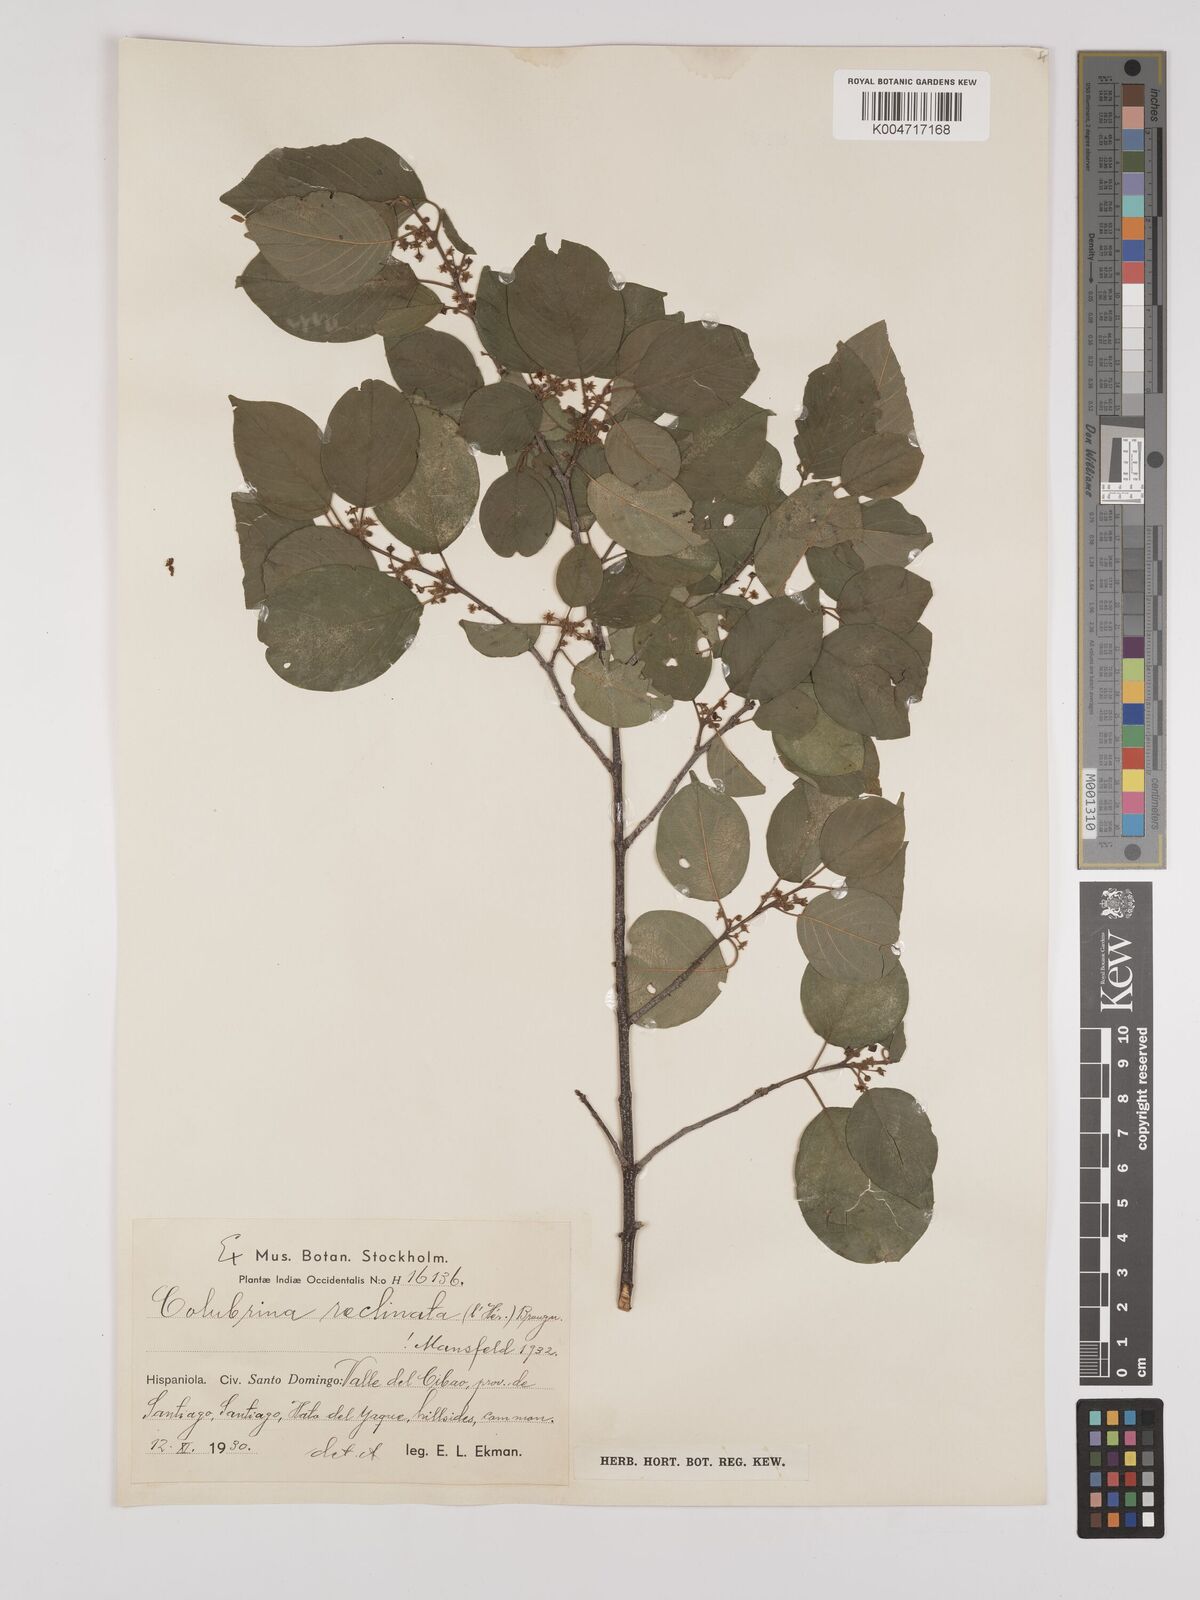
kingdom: Plantae
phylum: Tracheophyta
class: Magnoliopsida
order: Rosales
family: Rhamnaceae
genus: Colubrina
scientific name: Colubrina elliptica
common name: Soldierwood
